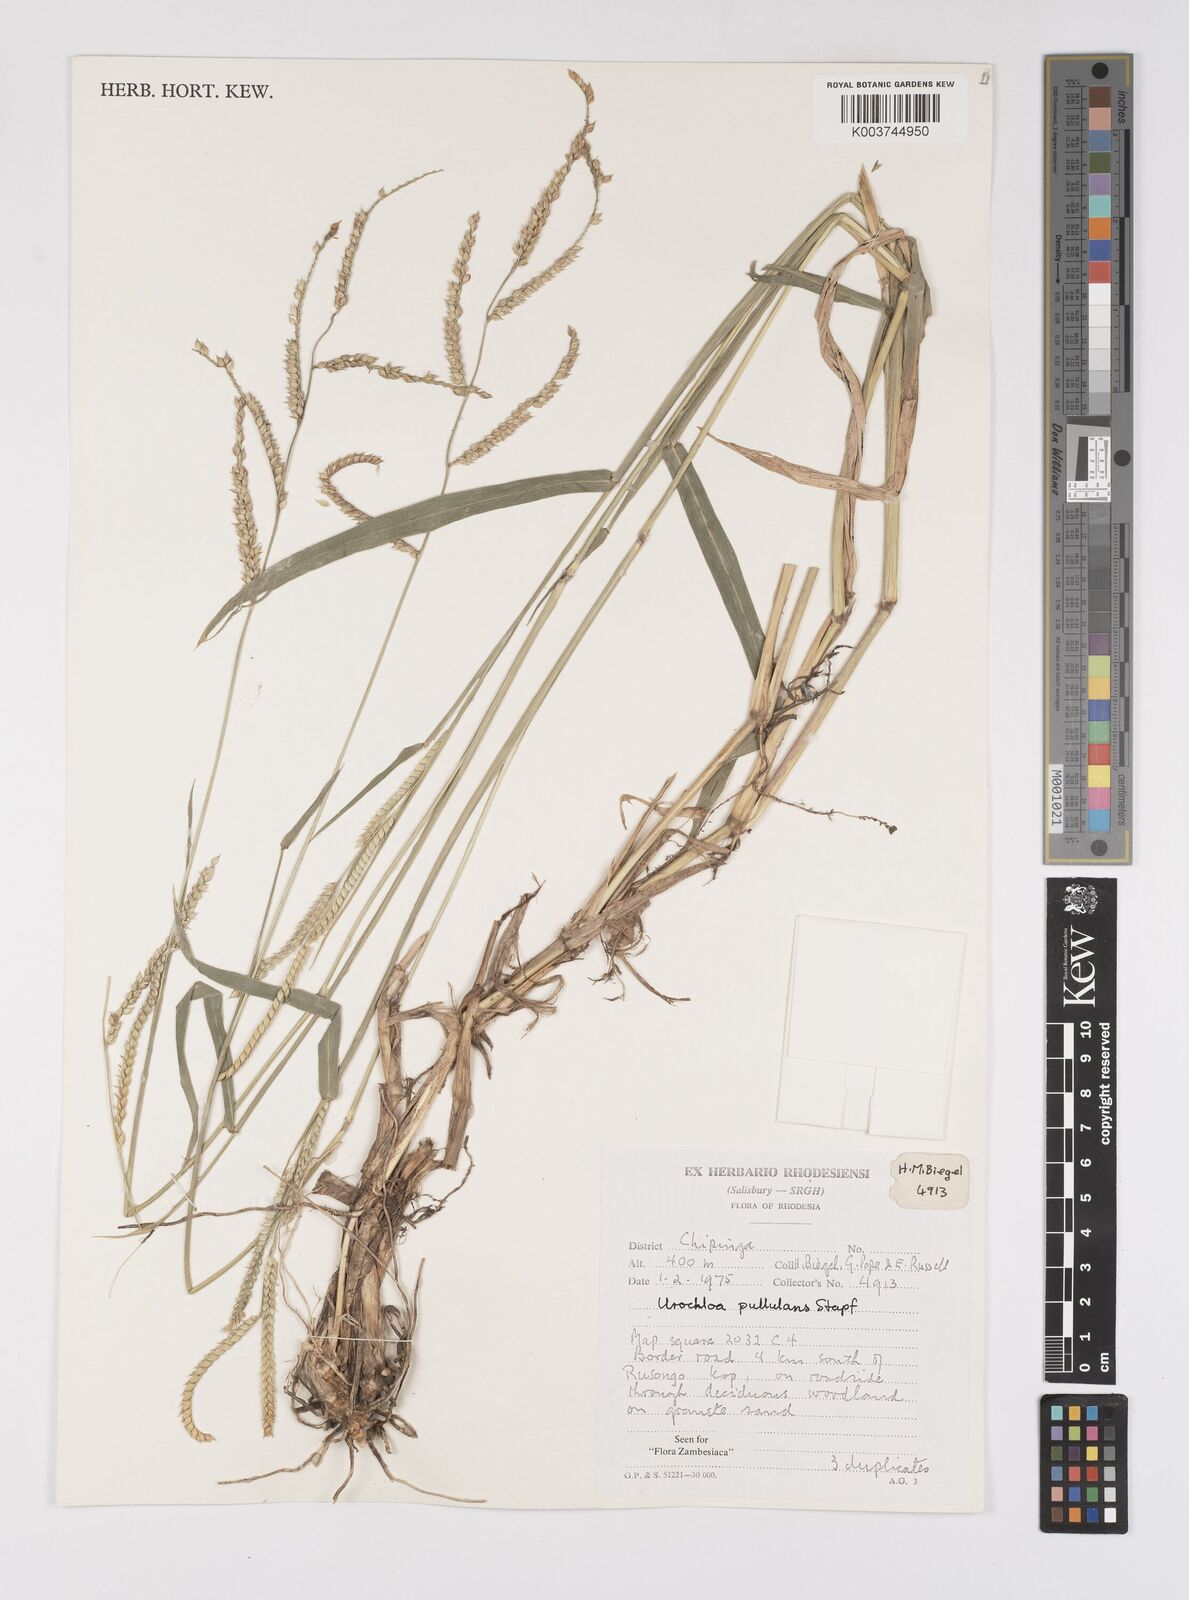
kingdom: Plantae
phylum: Tracheophyta
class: Liliopsida
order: Poales
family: Poaceae
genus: Urochloa
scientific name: Urochloa trichopus
